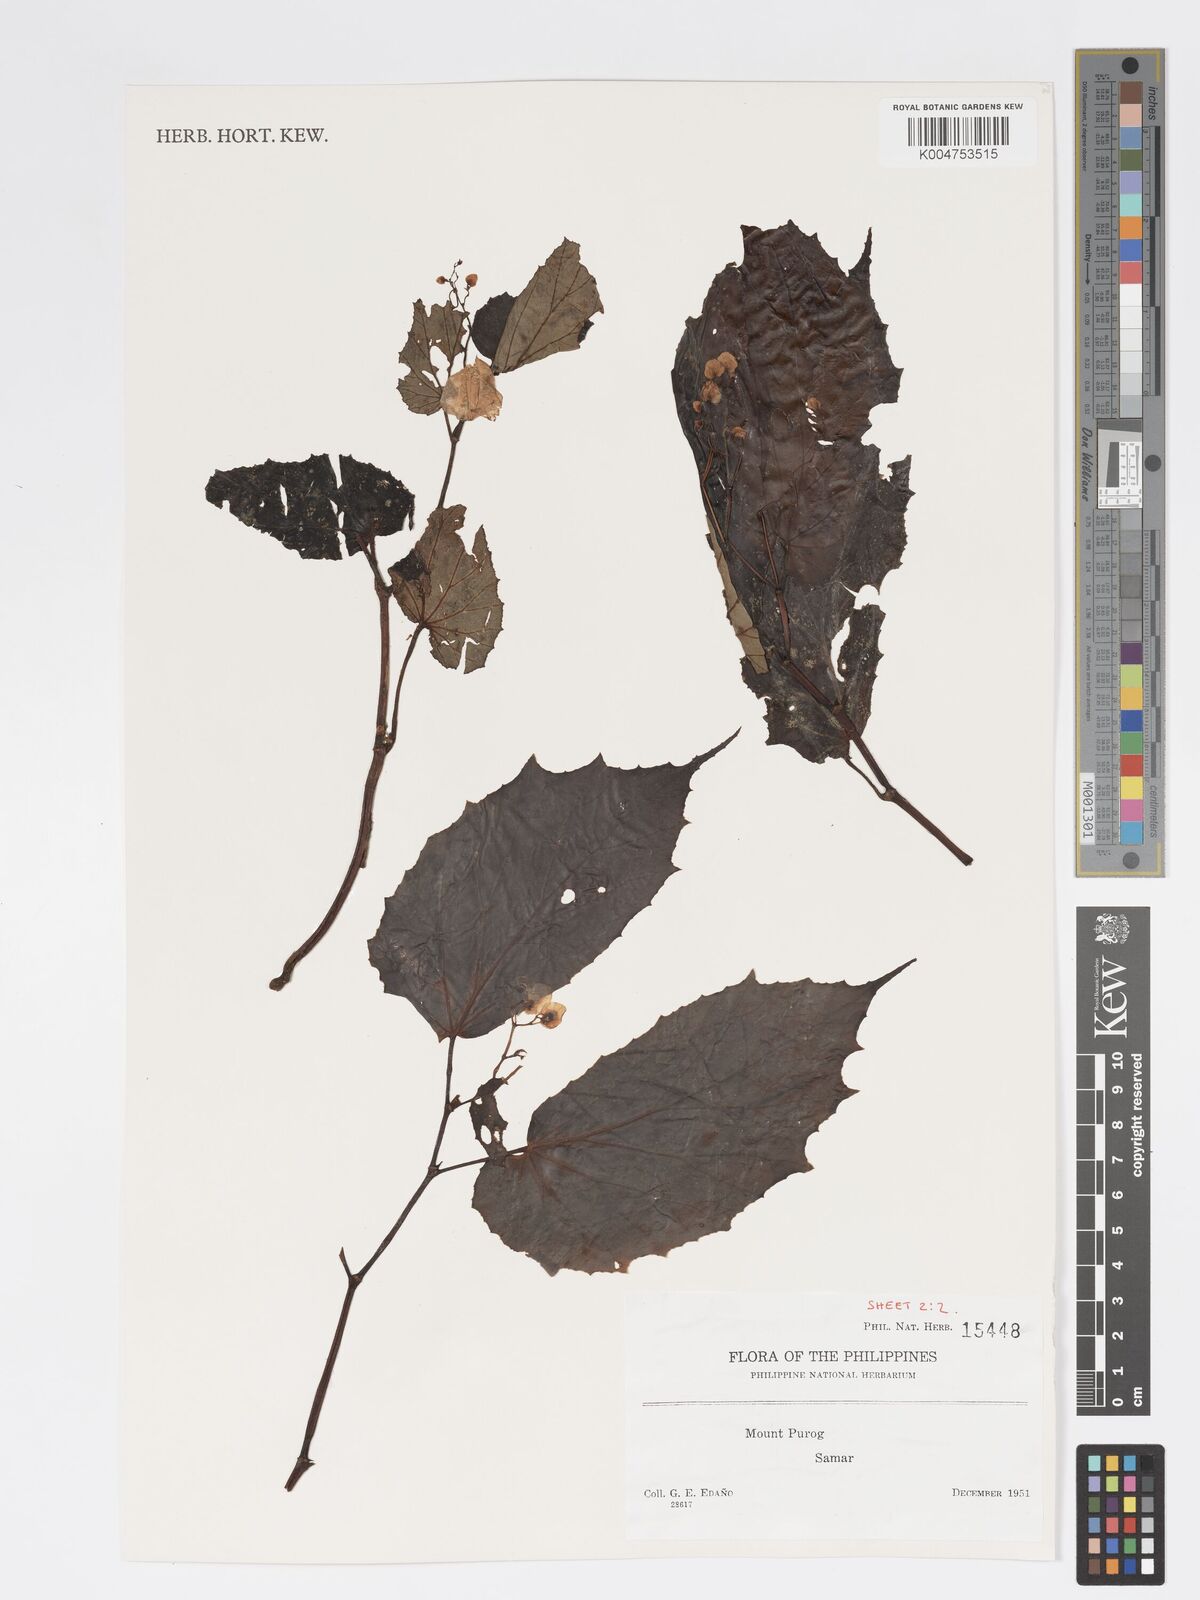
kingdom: Plantae
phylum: Tracheophyta
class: Magnoliopsida
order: Cucurbitales
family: Begoniaceae
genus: Begonia
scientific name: Begonia
